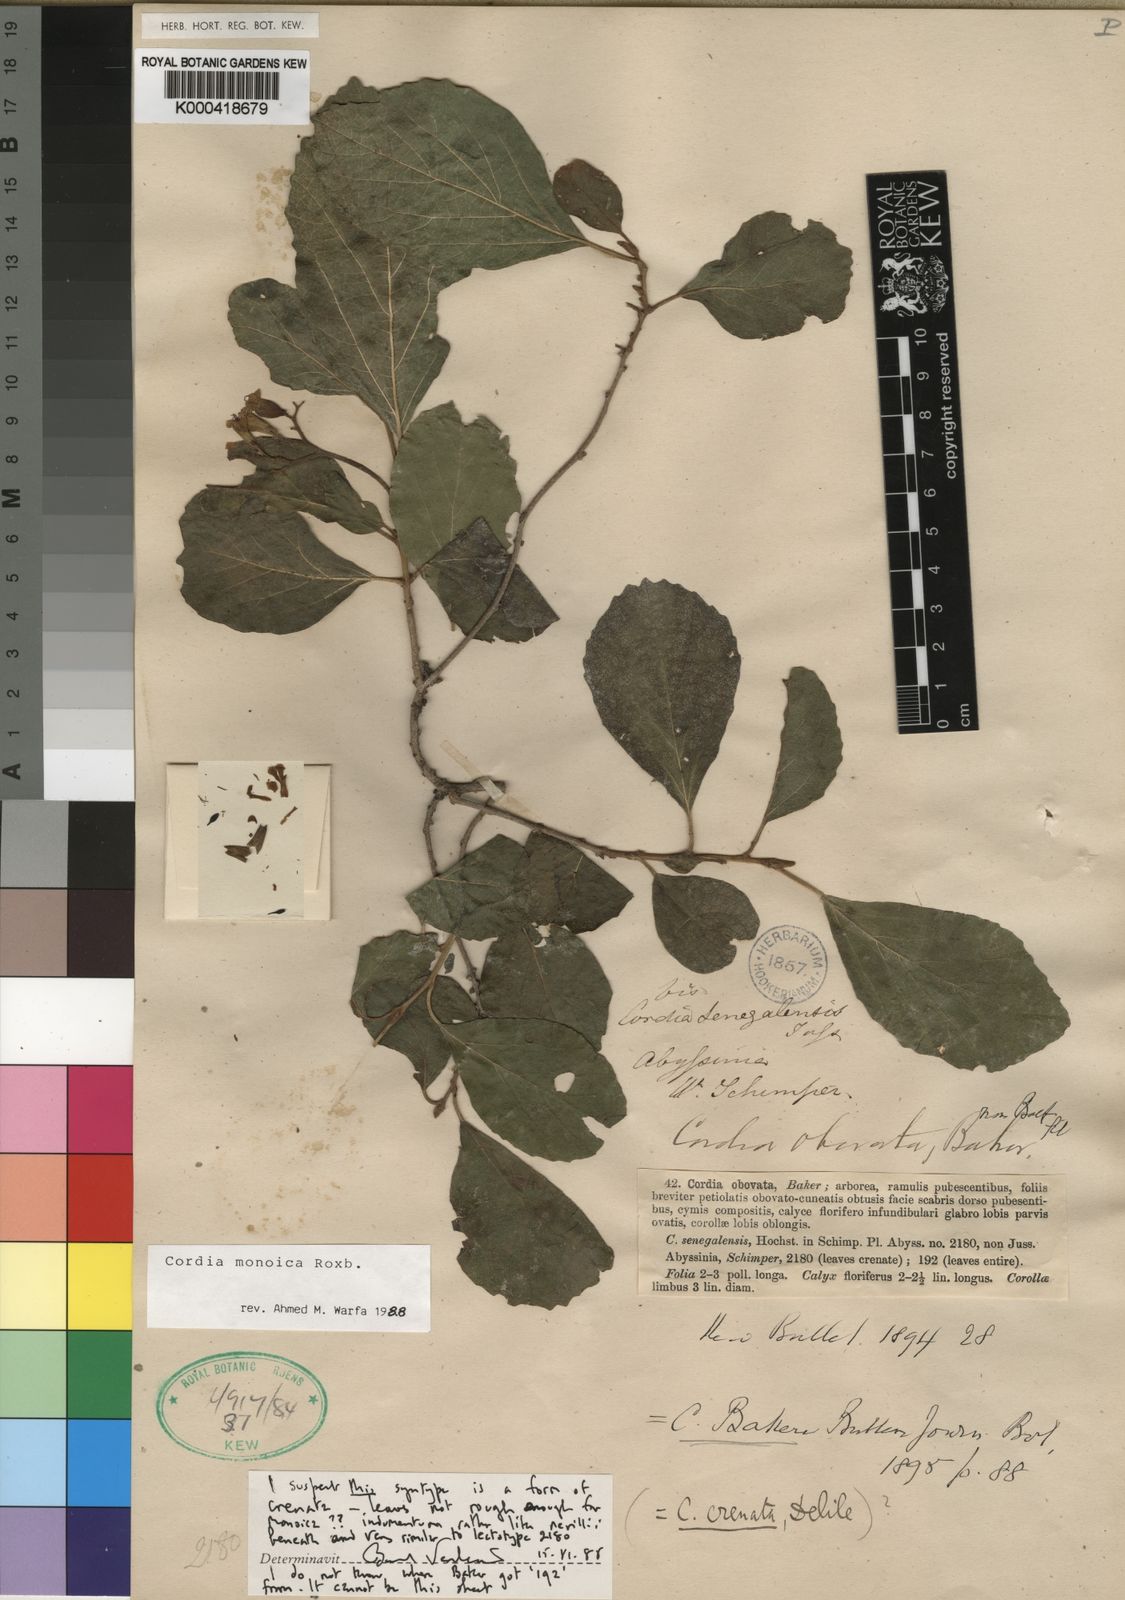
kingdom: Plantae
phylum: Tracheophyta
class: Magnoliopsida
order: Boraginales
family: Cordiaceae
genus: Cordia
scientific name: Cordia monoica
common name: Snot berry
